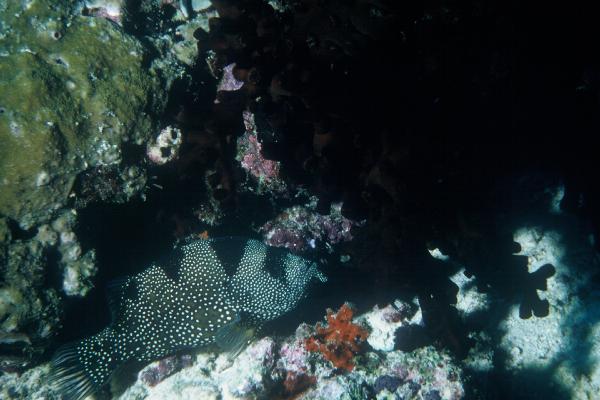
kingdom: Animalia
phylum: Chordata
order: Perciformes
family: Serranidae
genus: Pogonoperca
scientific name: Pogonoperca punctata
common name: Spotted soapfish
